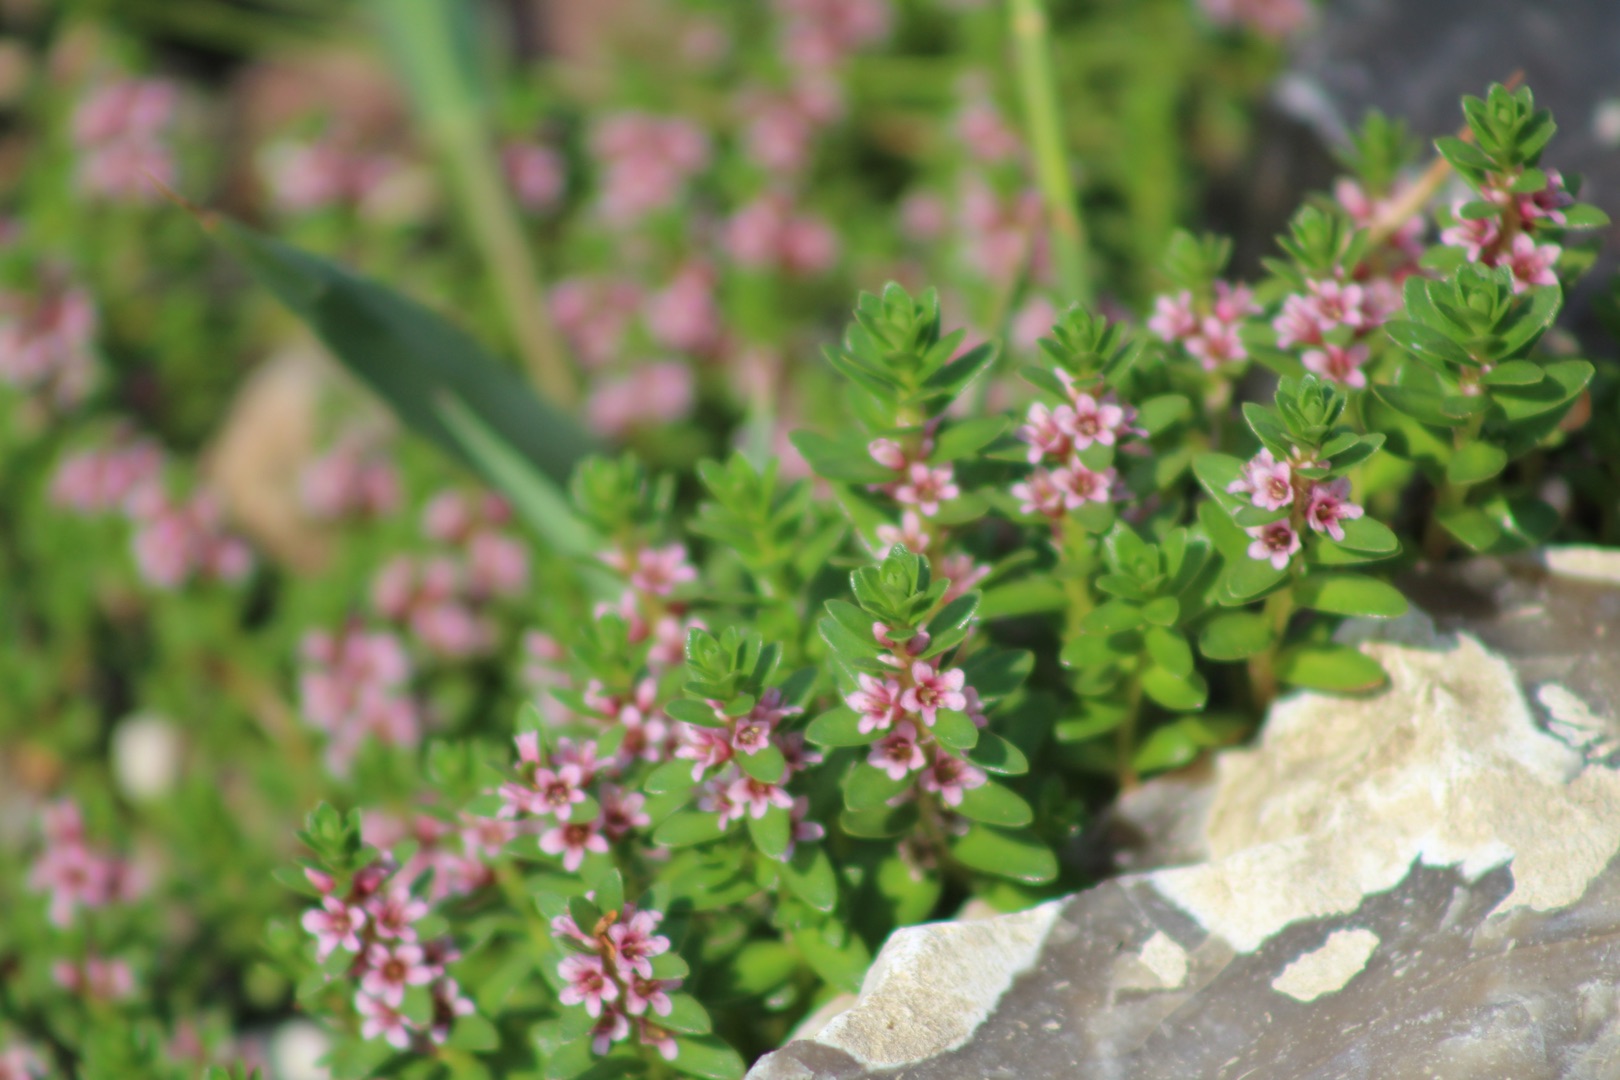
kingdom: Plantae
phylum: Tracheophyta
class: Magnoliopsida
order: Ericales
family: Primulaceae
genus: Lysimachia
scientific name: Lysimachia maritima
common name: Sandkryb
